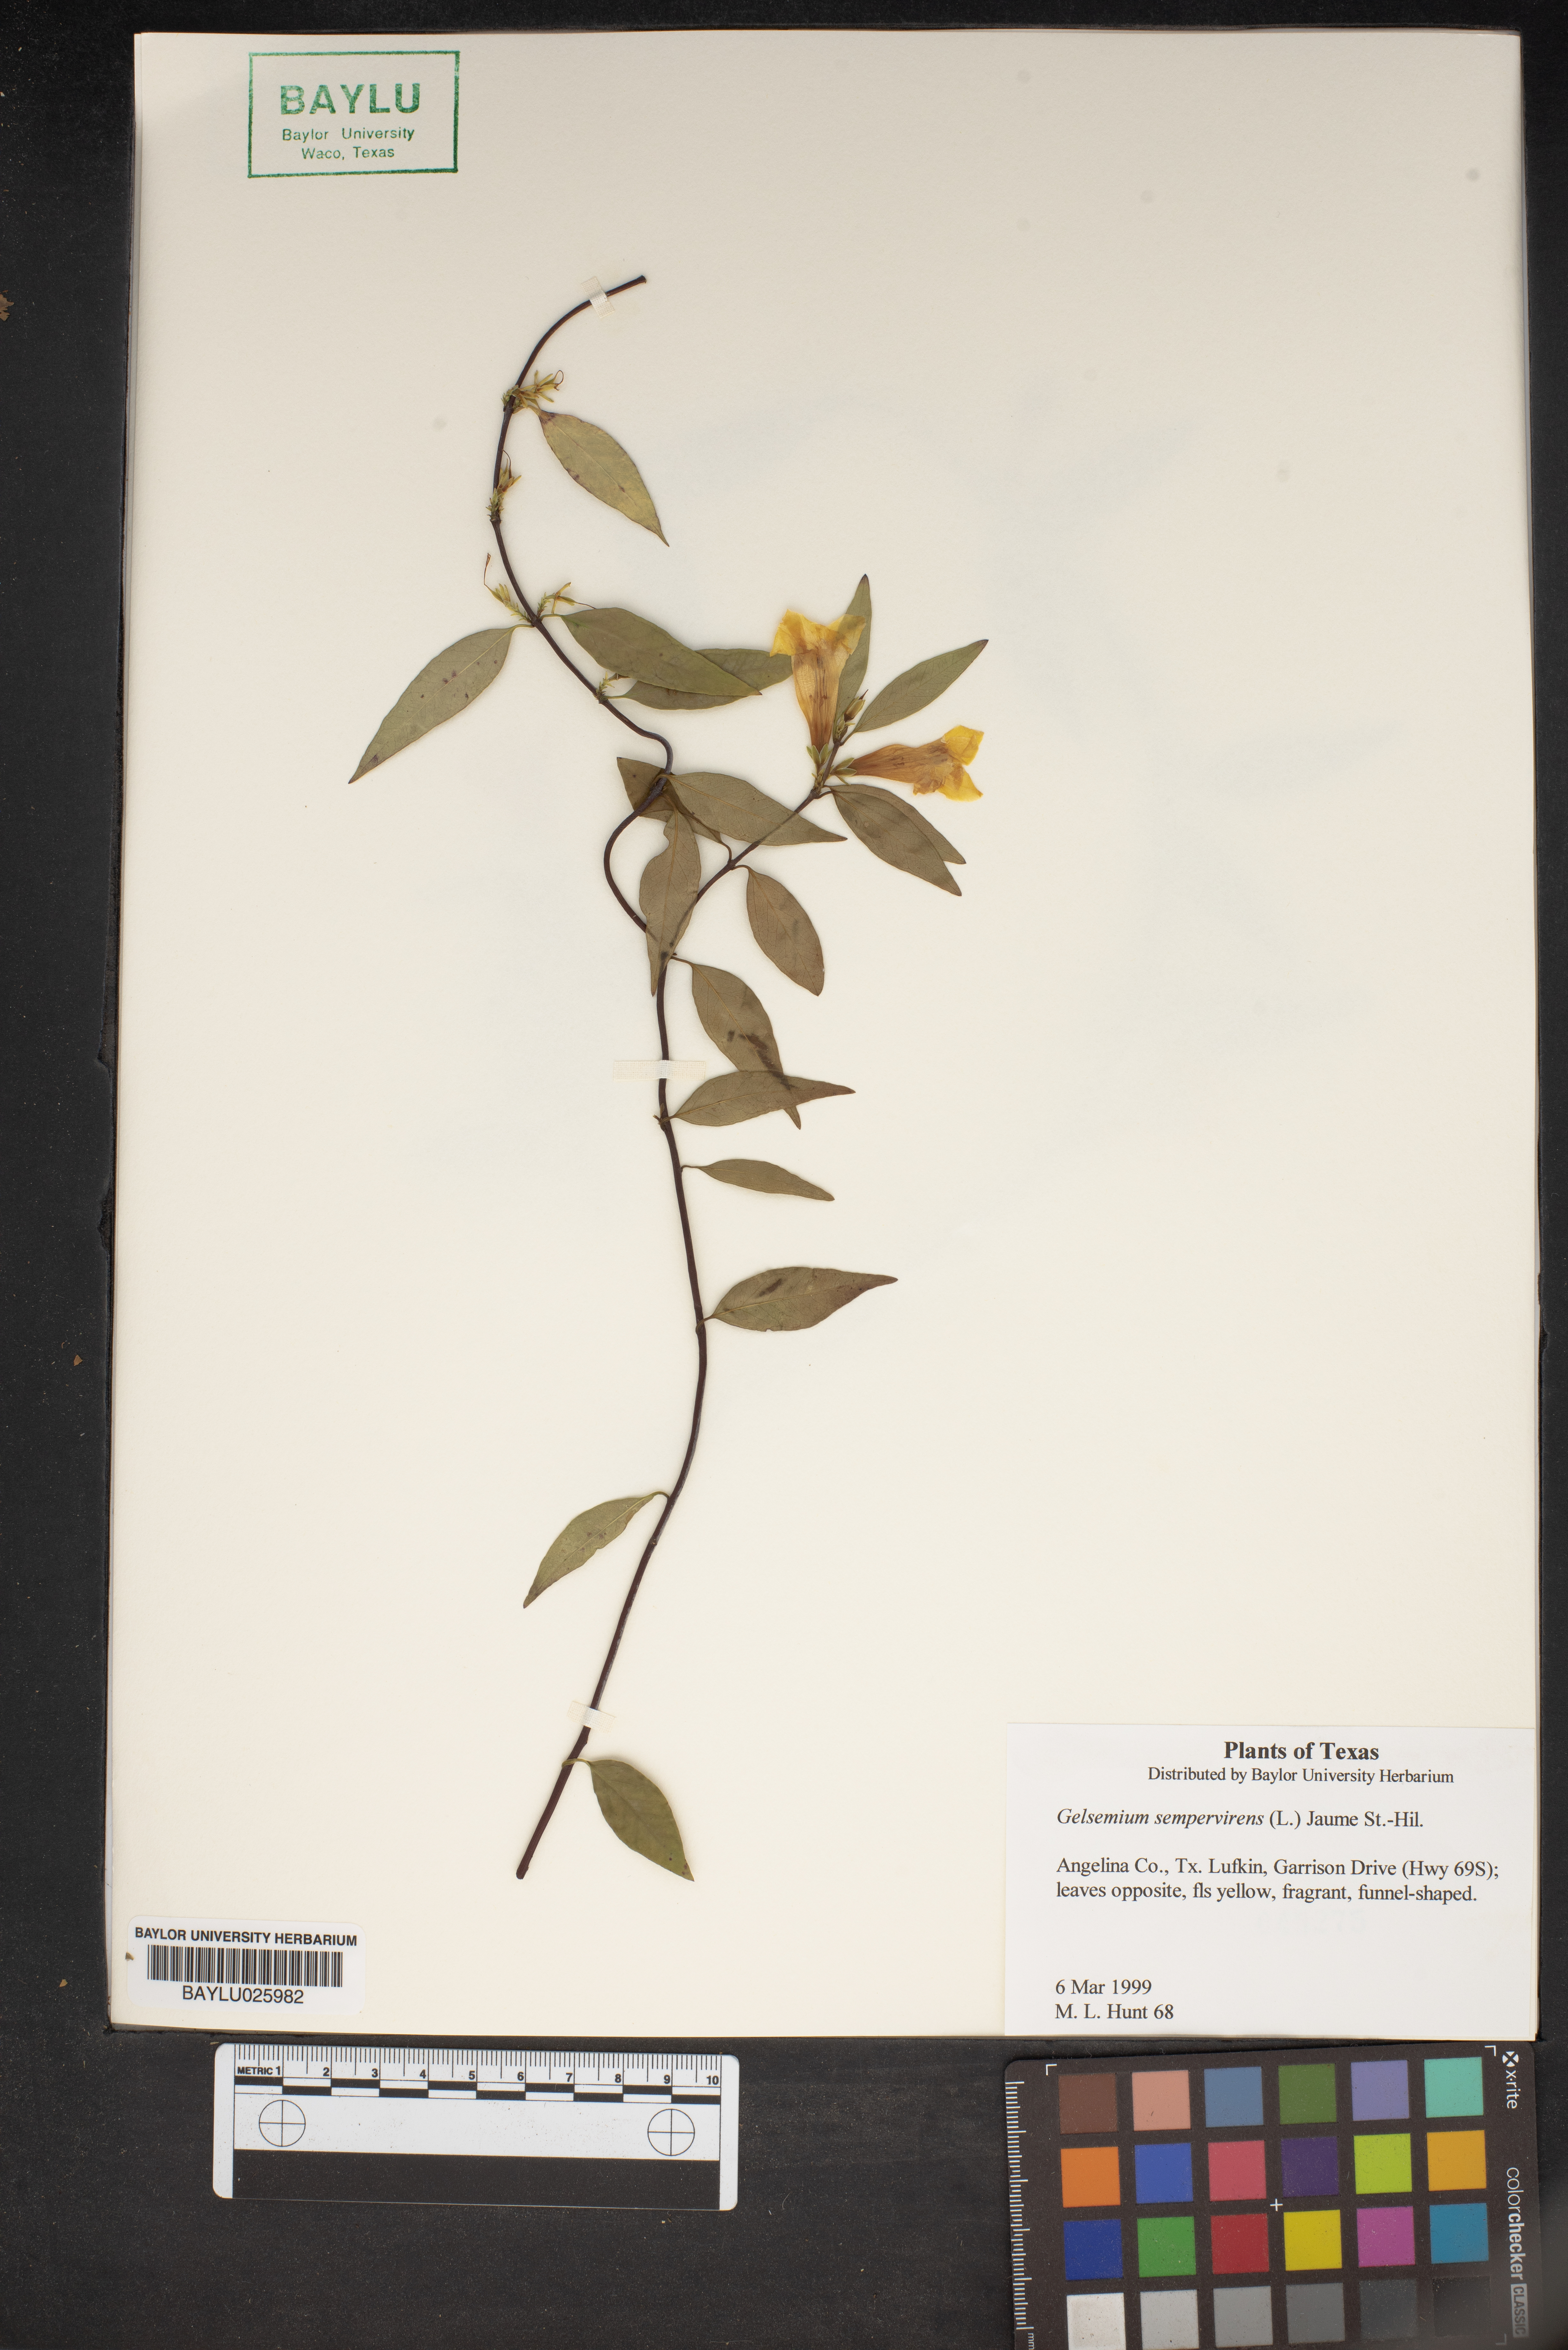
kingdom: Plantae
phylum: Tracheophyta
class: Magnoliopsida
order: Gentianales
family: Gelsemiaceae
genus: Gelsemium
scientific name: Gelsemium sempervirens
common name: Carolina-jasmine
